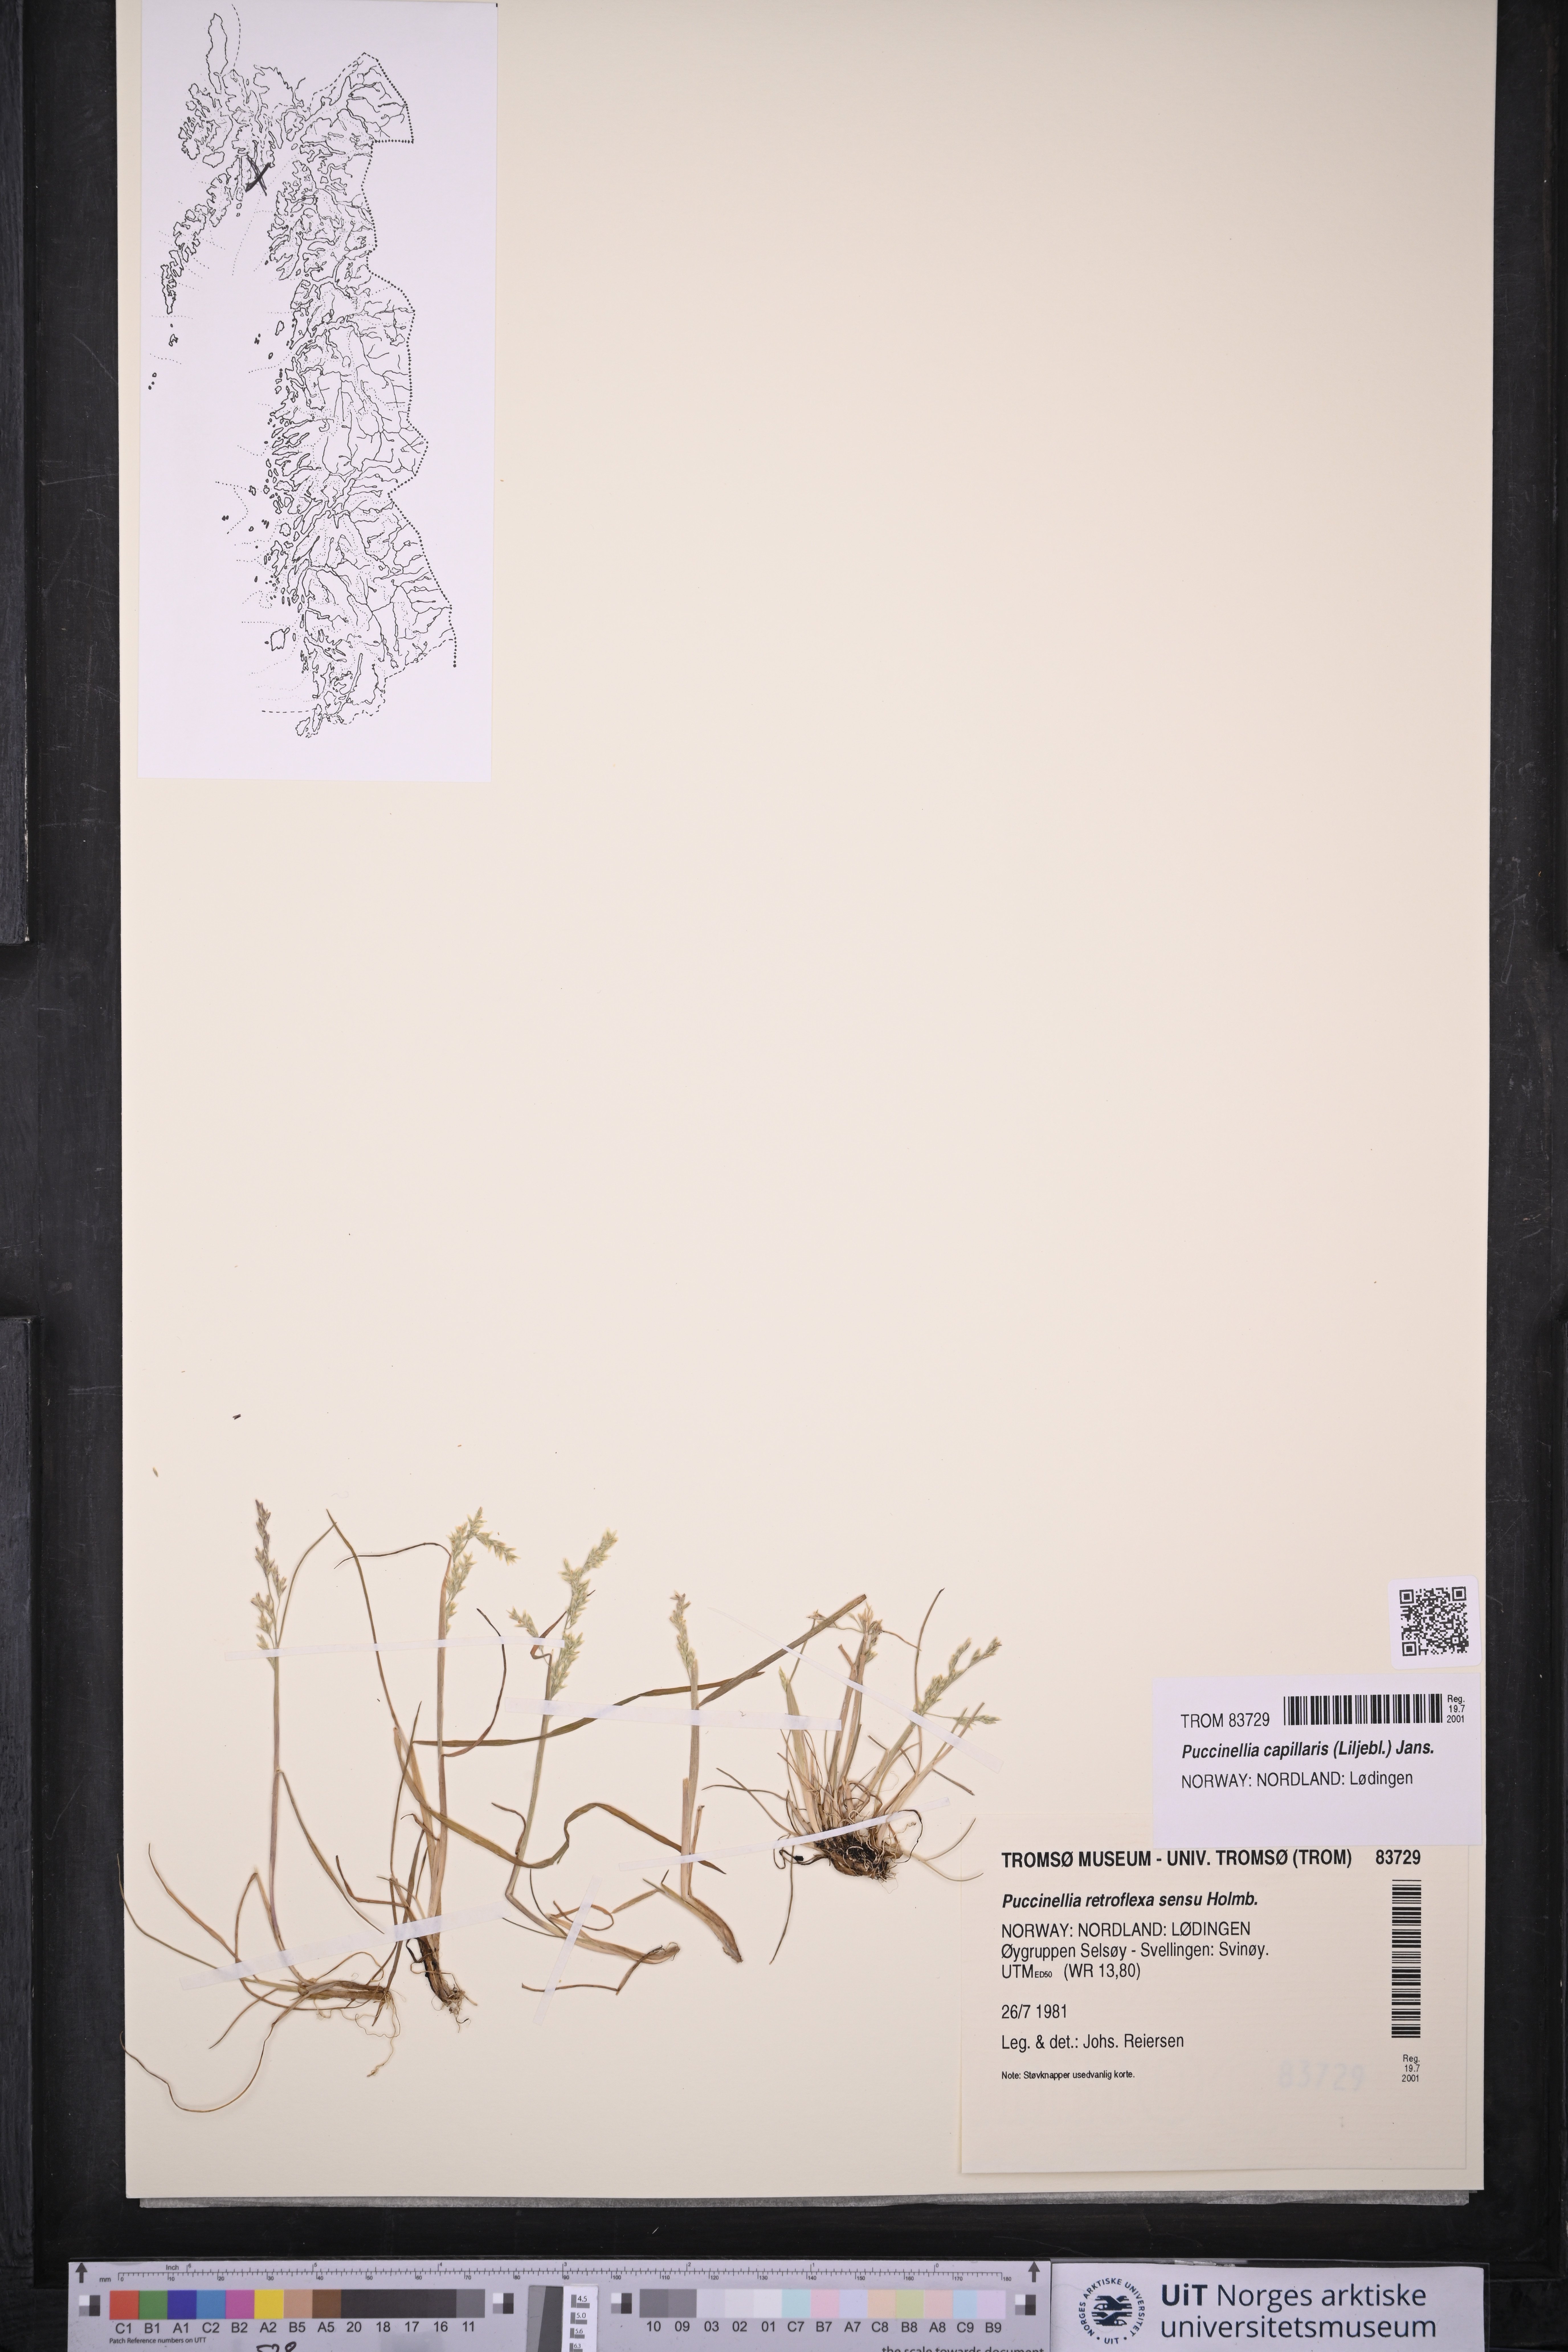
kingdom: Plantae
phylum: Tracheophyta
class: Liliopsida
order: Poales
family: Poaceae
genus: Puccinellia
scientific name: Puccinellia distans
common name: Weeping alkaligrass
